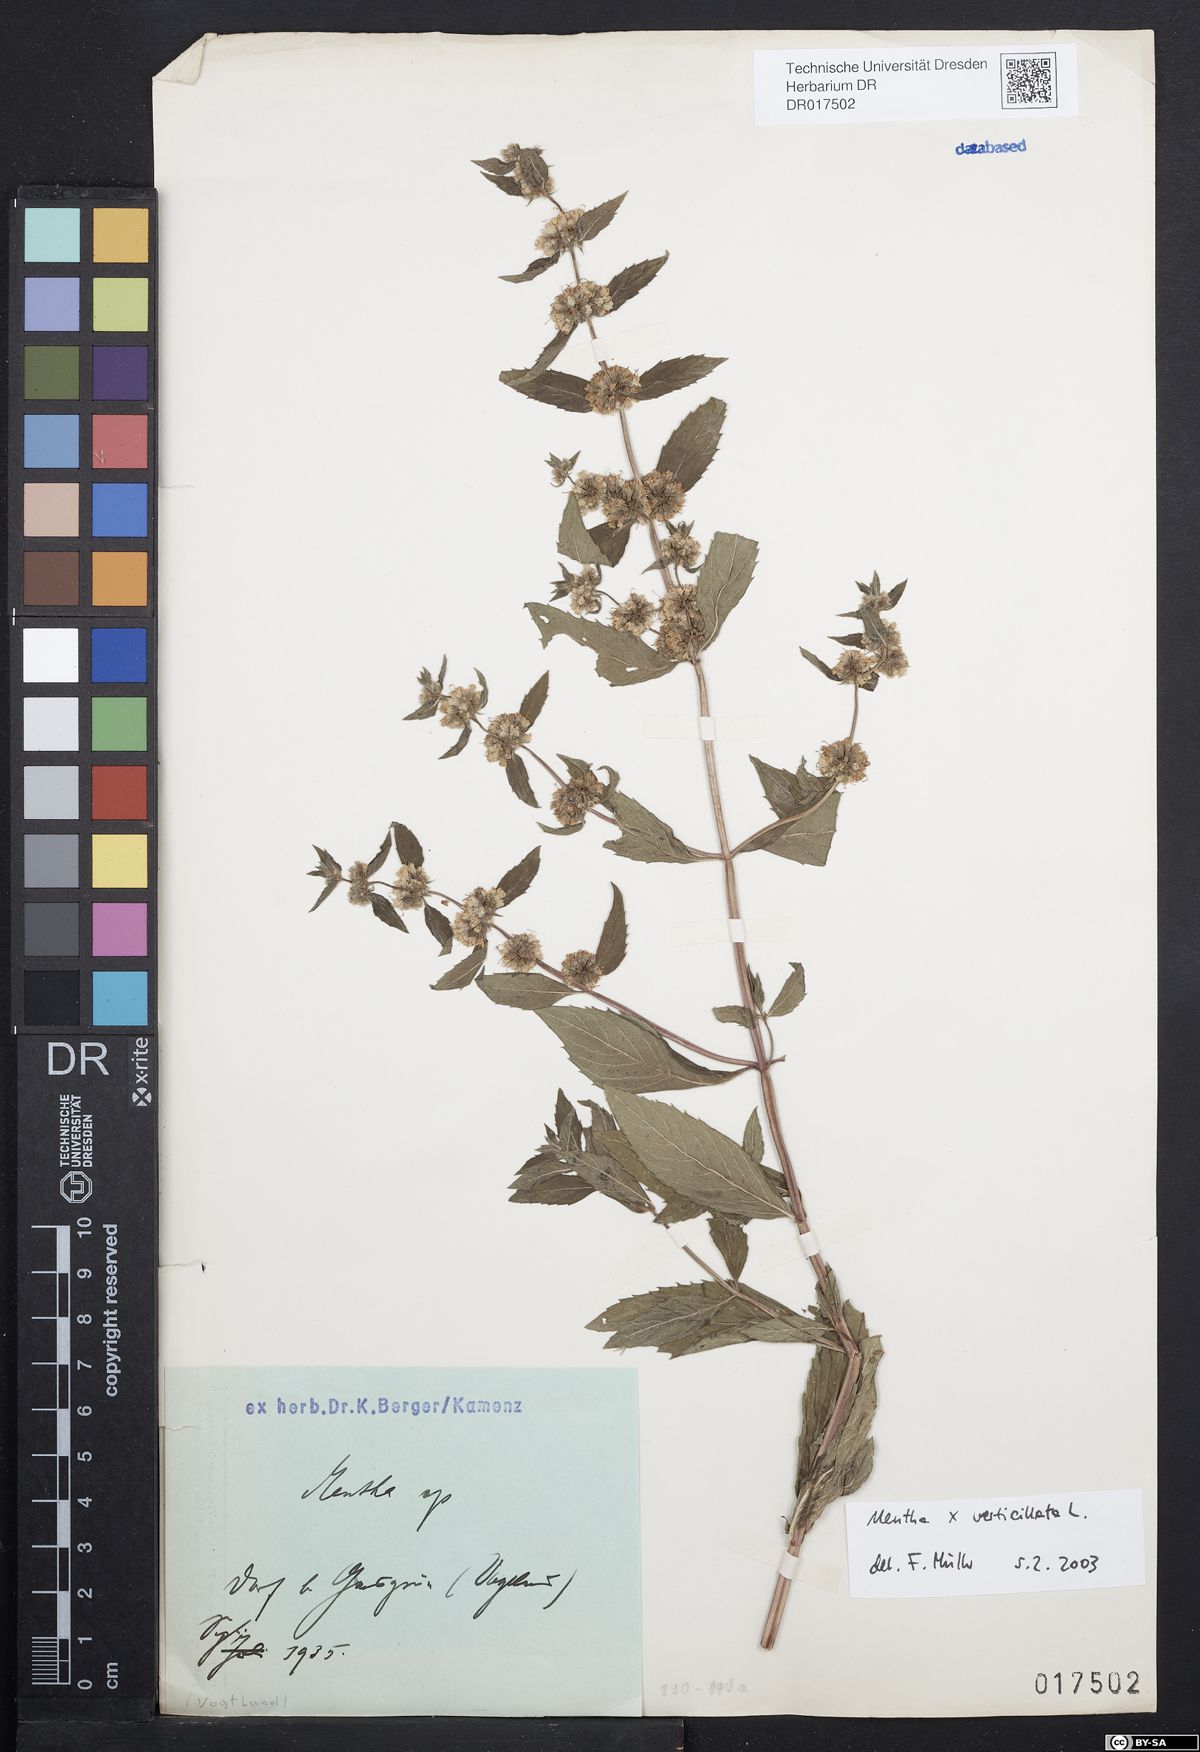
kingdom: Plantae
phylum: Tracheophyta
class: Magnoliopsida
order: Lamiales
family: Lamiaceae
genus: Mentha
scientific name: Mentha verticillata
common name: Mint
